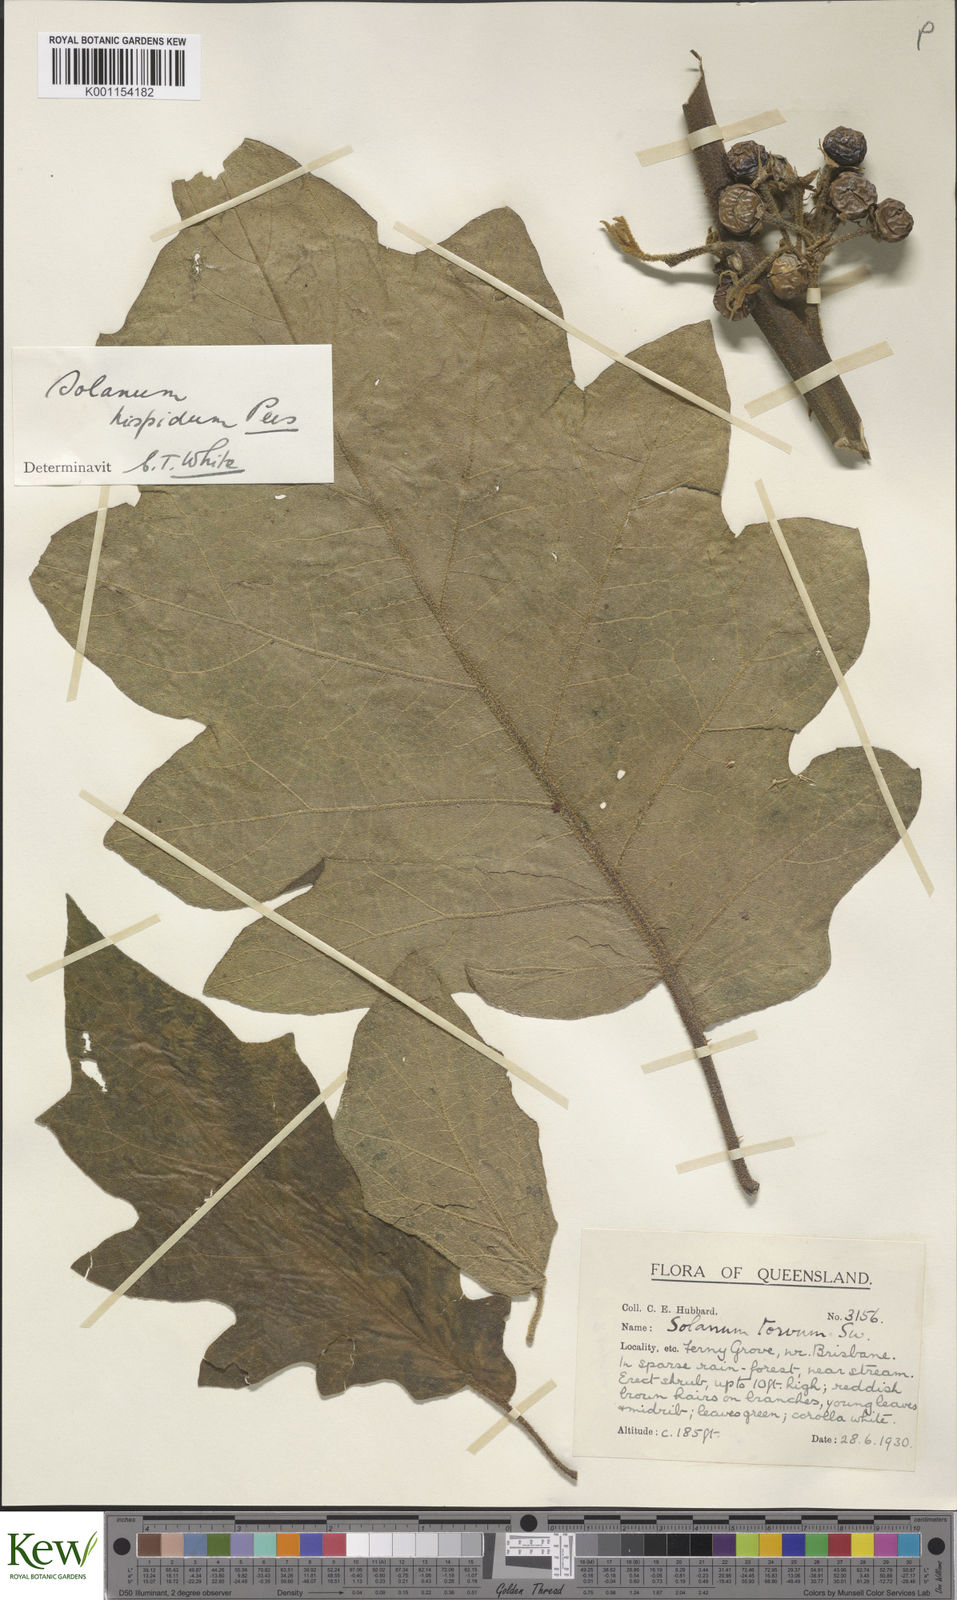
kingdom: Plantae
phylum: Tracheophyta
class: Magnoliopsida
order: Solanales
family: Solanaceae
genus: Solanum
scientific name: Solanum asperolanatum
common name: Devil's-fig
